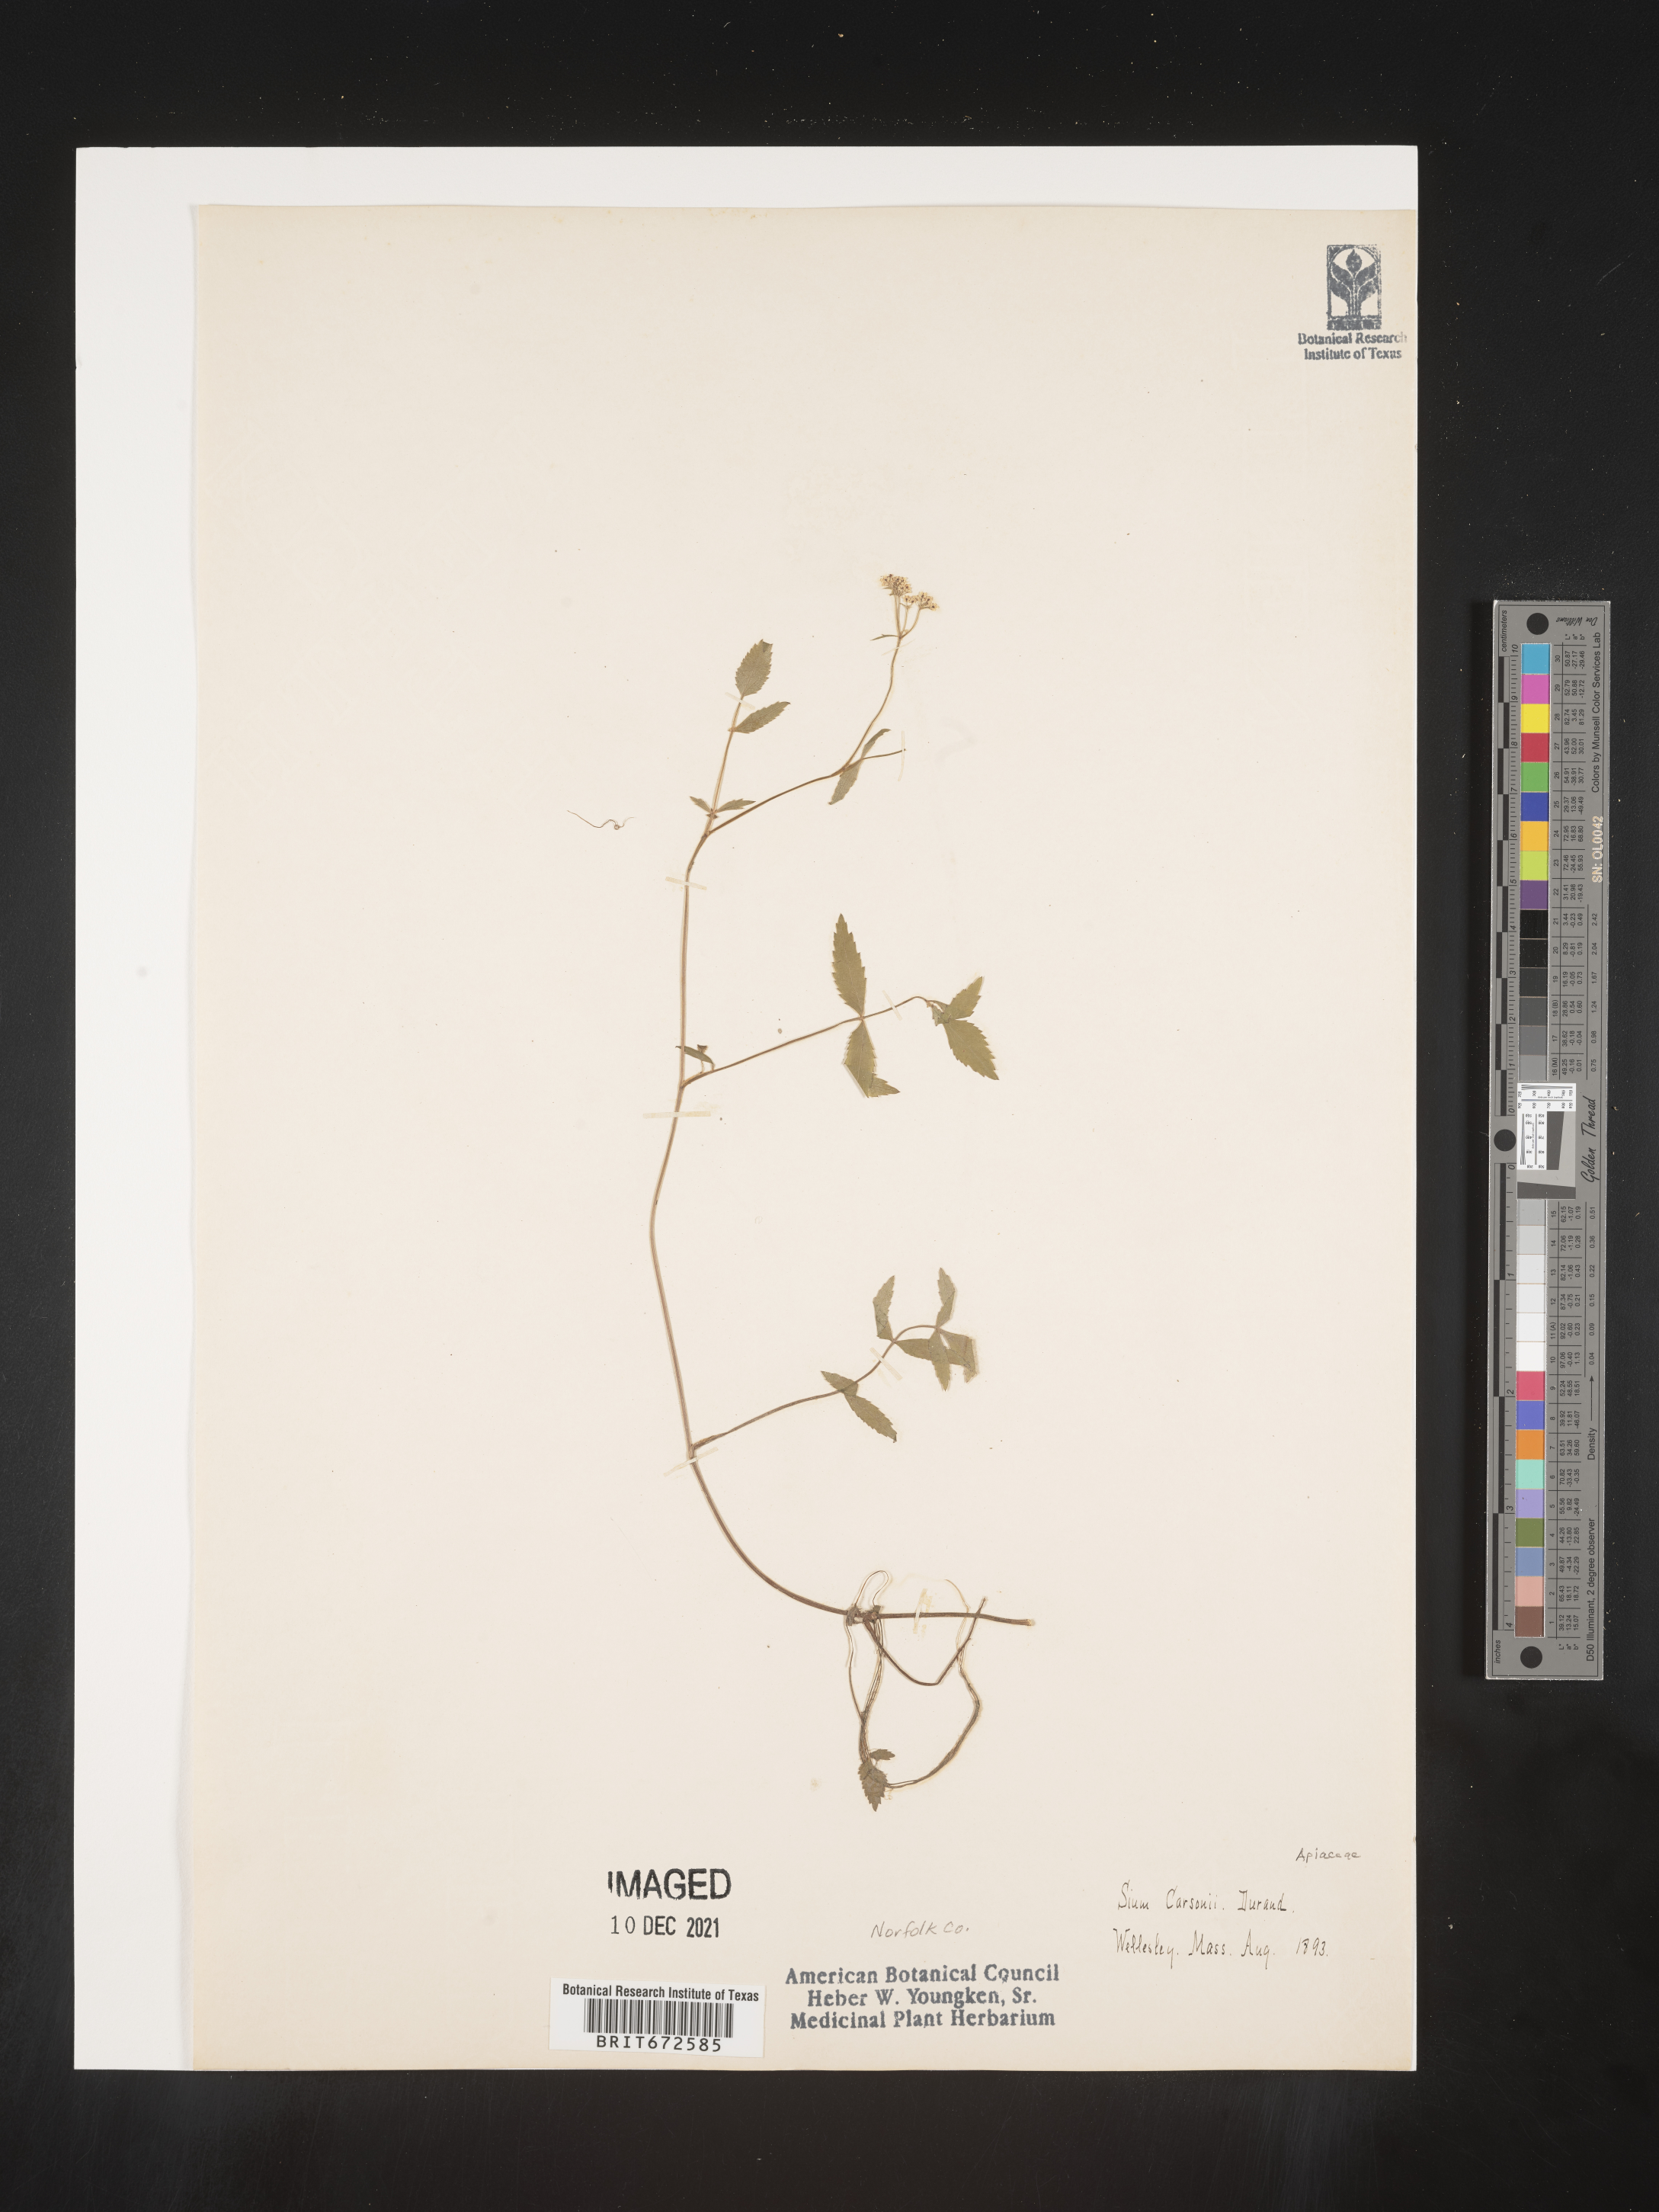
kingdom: Plantae
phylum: Tracheophyta
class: Magnoliopsida
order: Apiales
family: Apiaceae
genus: Sium
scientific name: Sium carsonii
